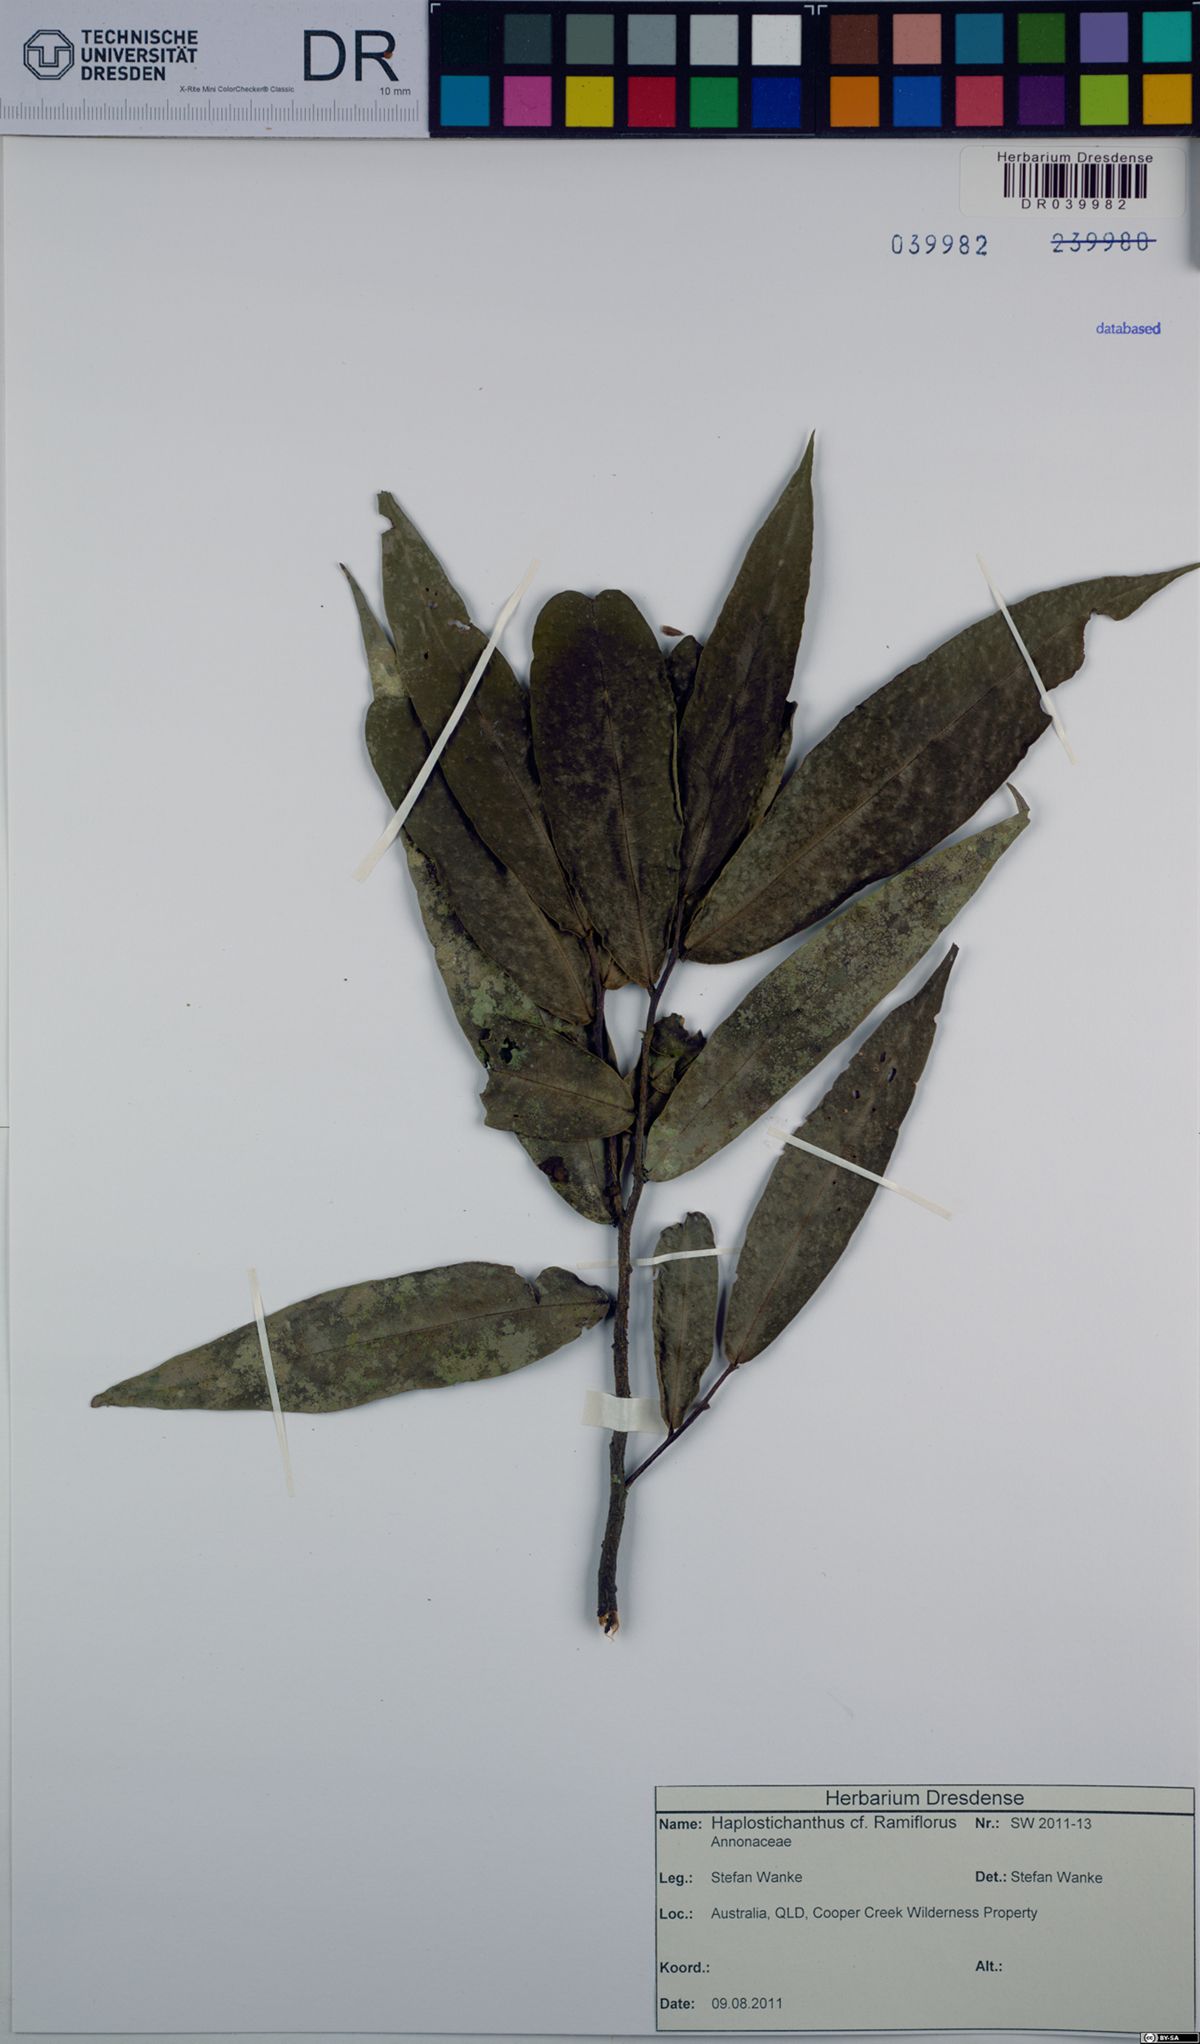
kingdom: Plantae
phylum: Tracheophyta
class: Magnoliopsida
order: Magnoliales
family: Annonaceae
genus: Haplostichanthus
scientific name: Haplostichanthus ramiflorus
